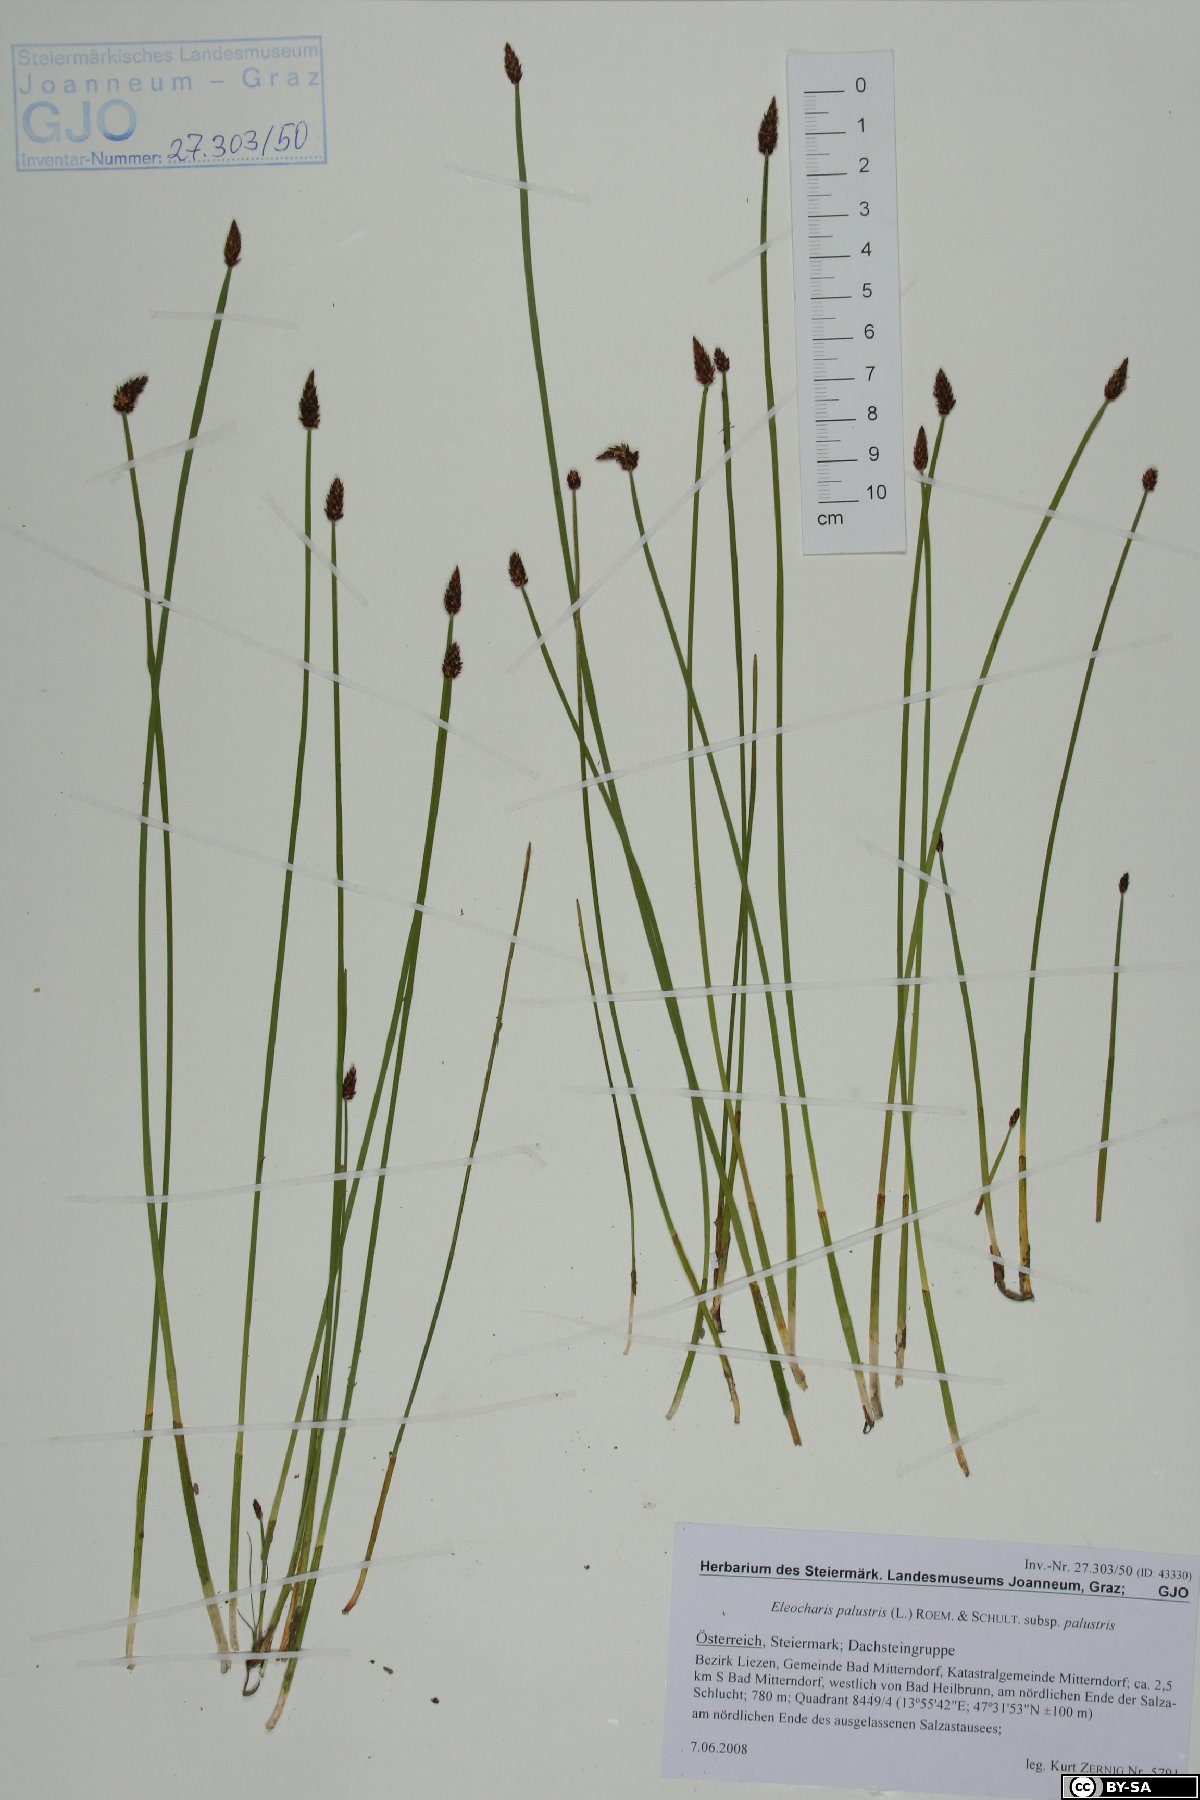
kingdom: Plantae
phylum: Tracheophyta
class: Liliopsida
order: Poales
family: Cyperaceae
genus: Eleocharis
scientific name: Eleocharis palustris
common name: Common spike-rush
